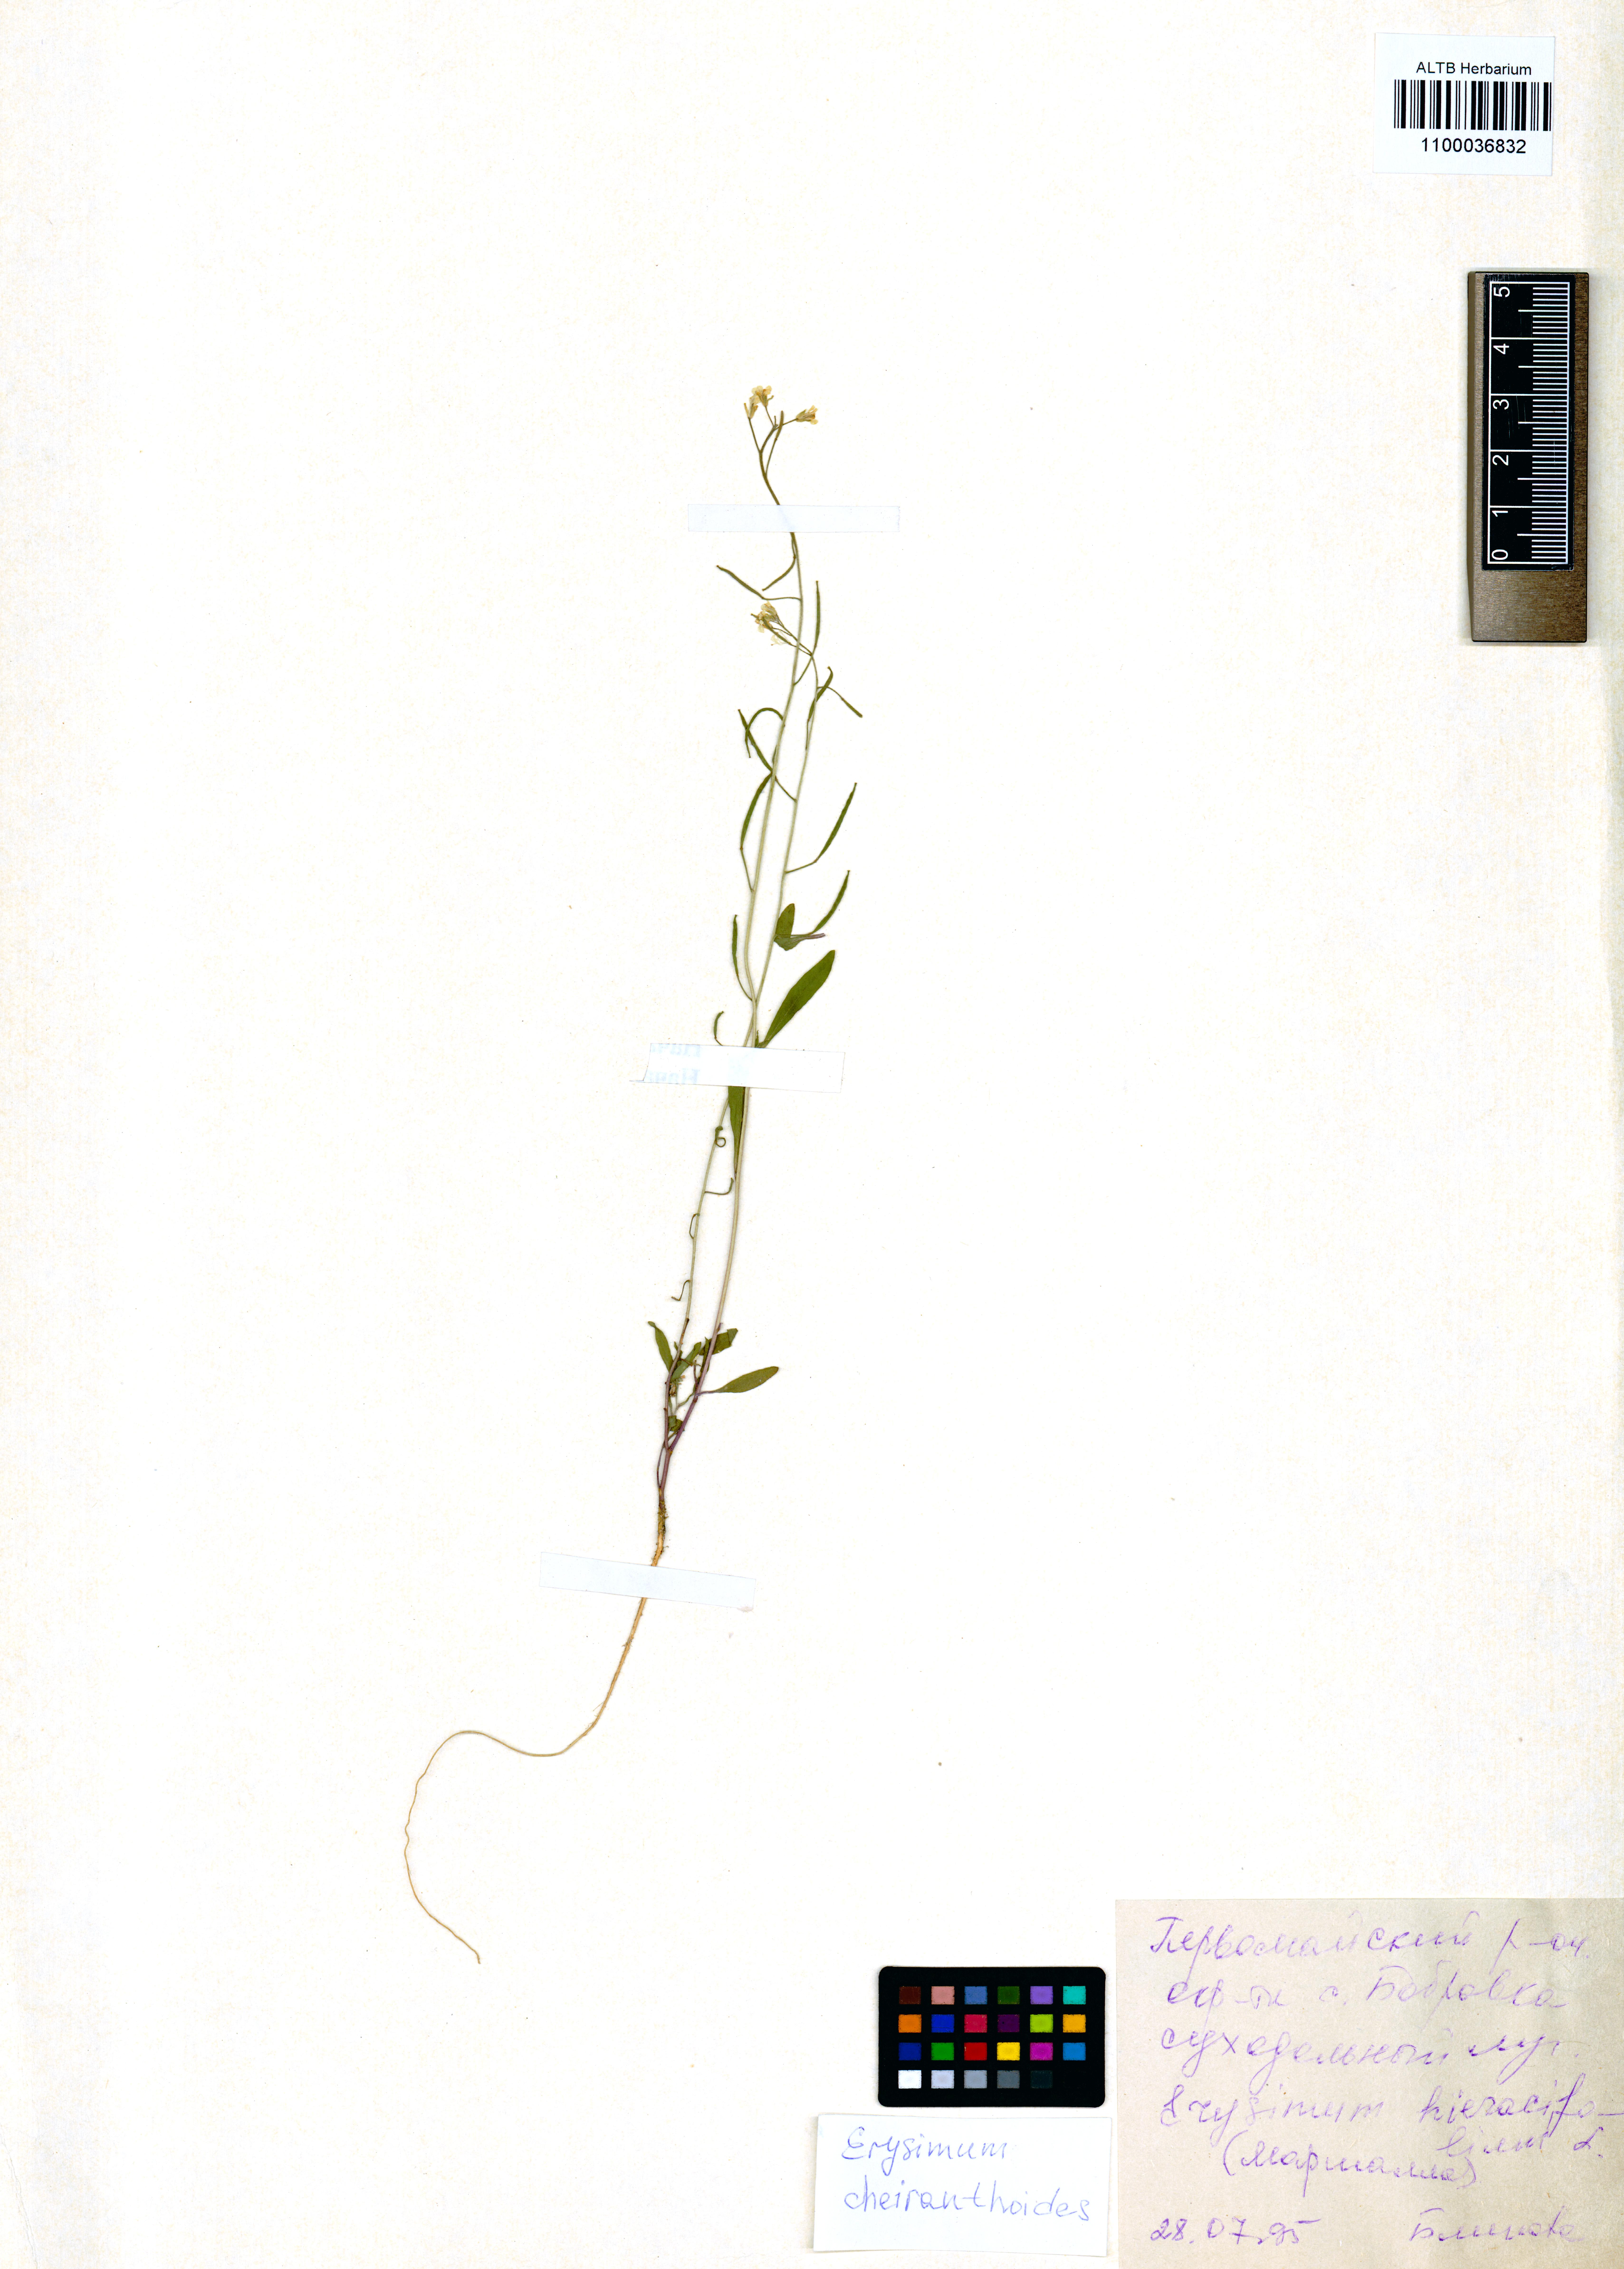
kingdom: Plantae
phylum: Tracheophyta
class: Magnoliopsida
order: Brassicales
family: Brassicaceae
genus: Erysimum
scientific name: Erysimum cheiranthoides
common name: Treacle mustard
